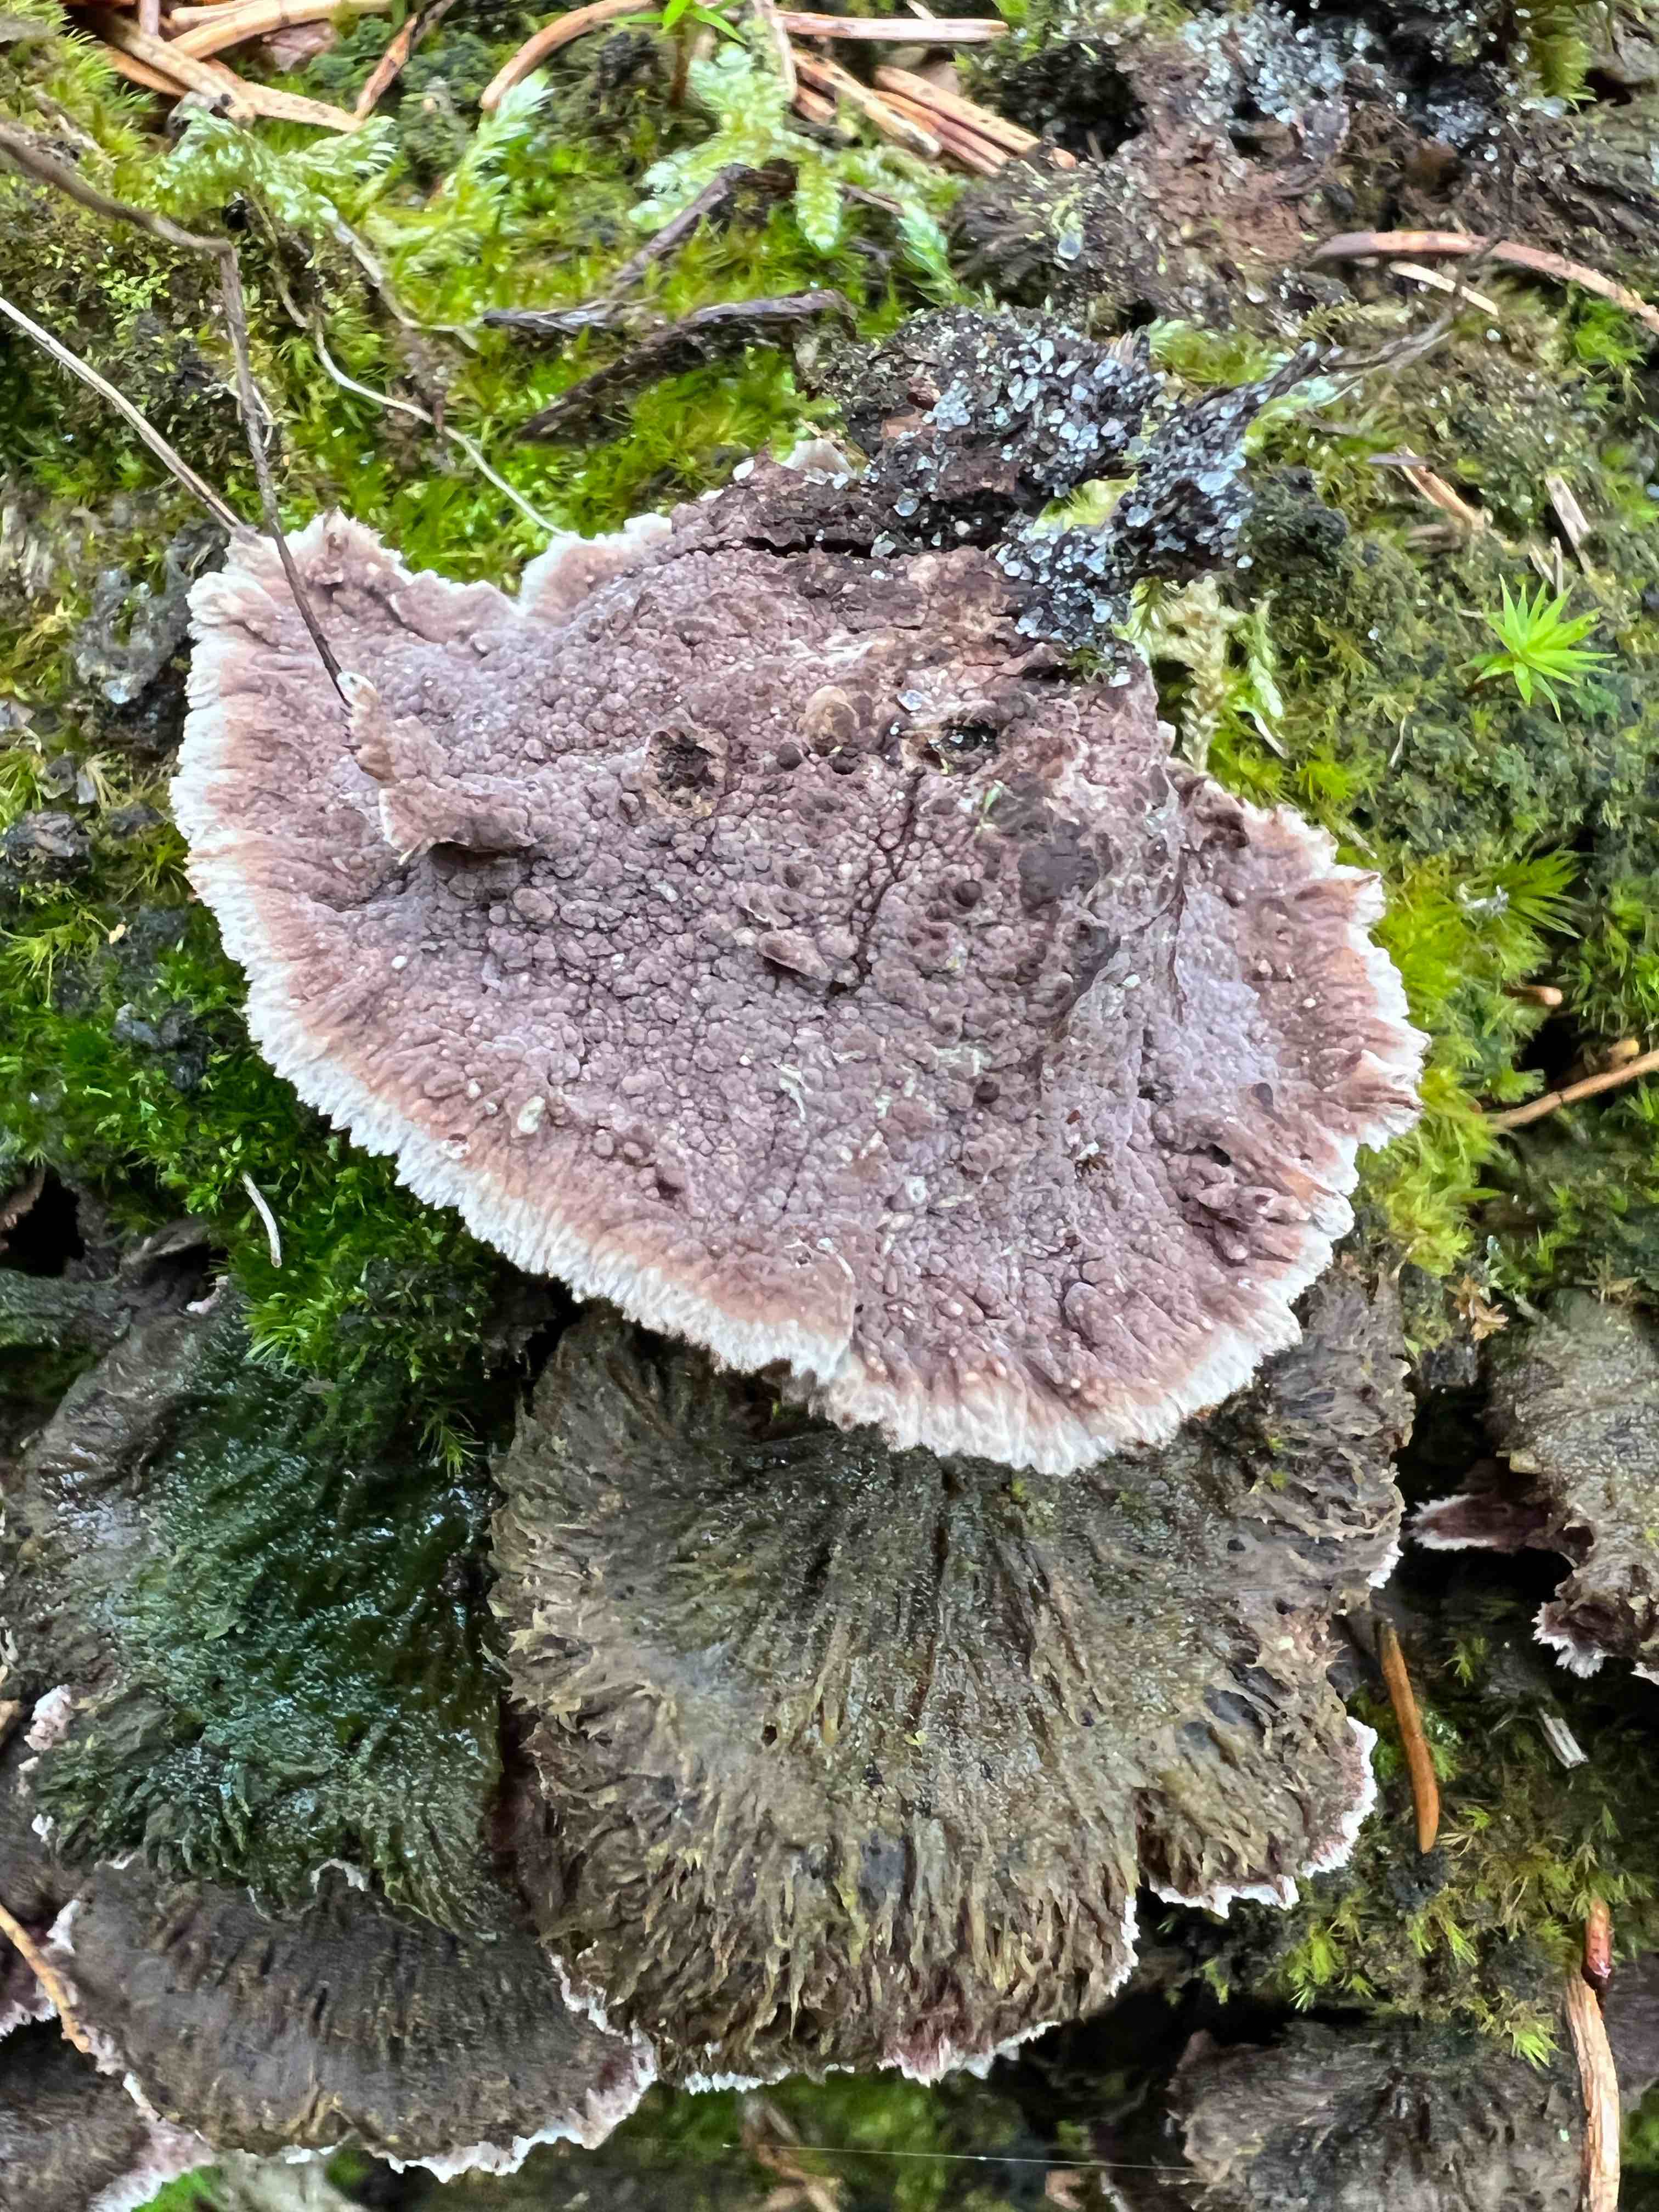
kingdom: Fungi
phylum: Basidiomycota
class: Agaricomycetes
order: Thelephorales
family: Thelephoraceae
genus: Thelephora
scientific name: Thelephora terrestris
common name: fliget frynsesvamp
